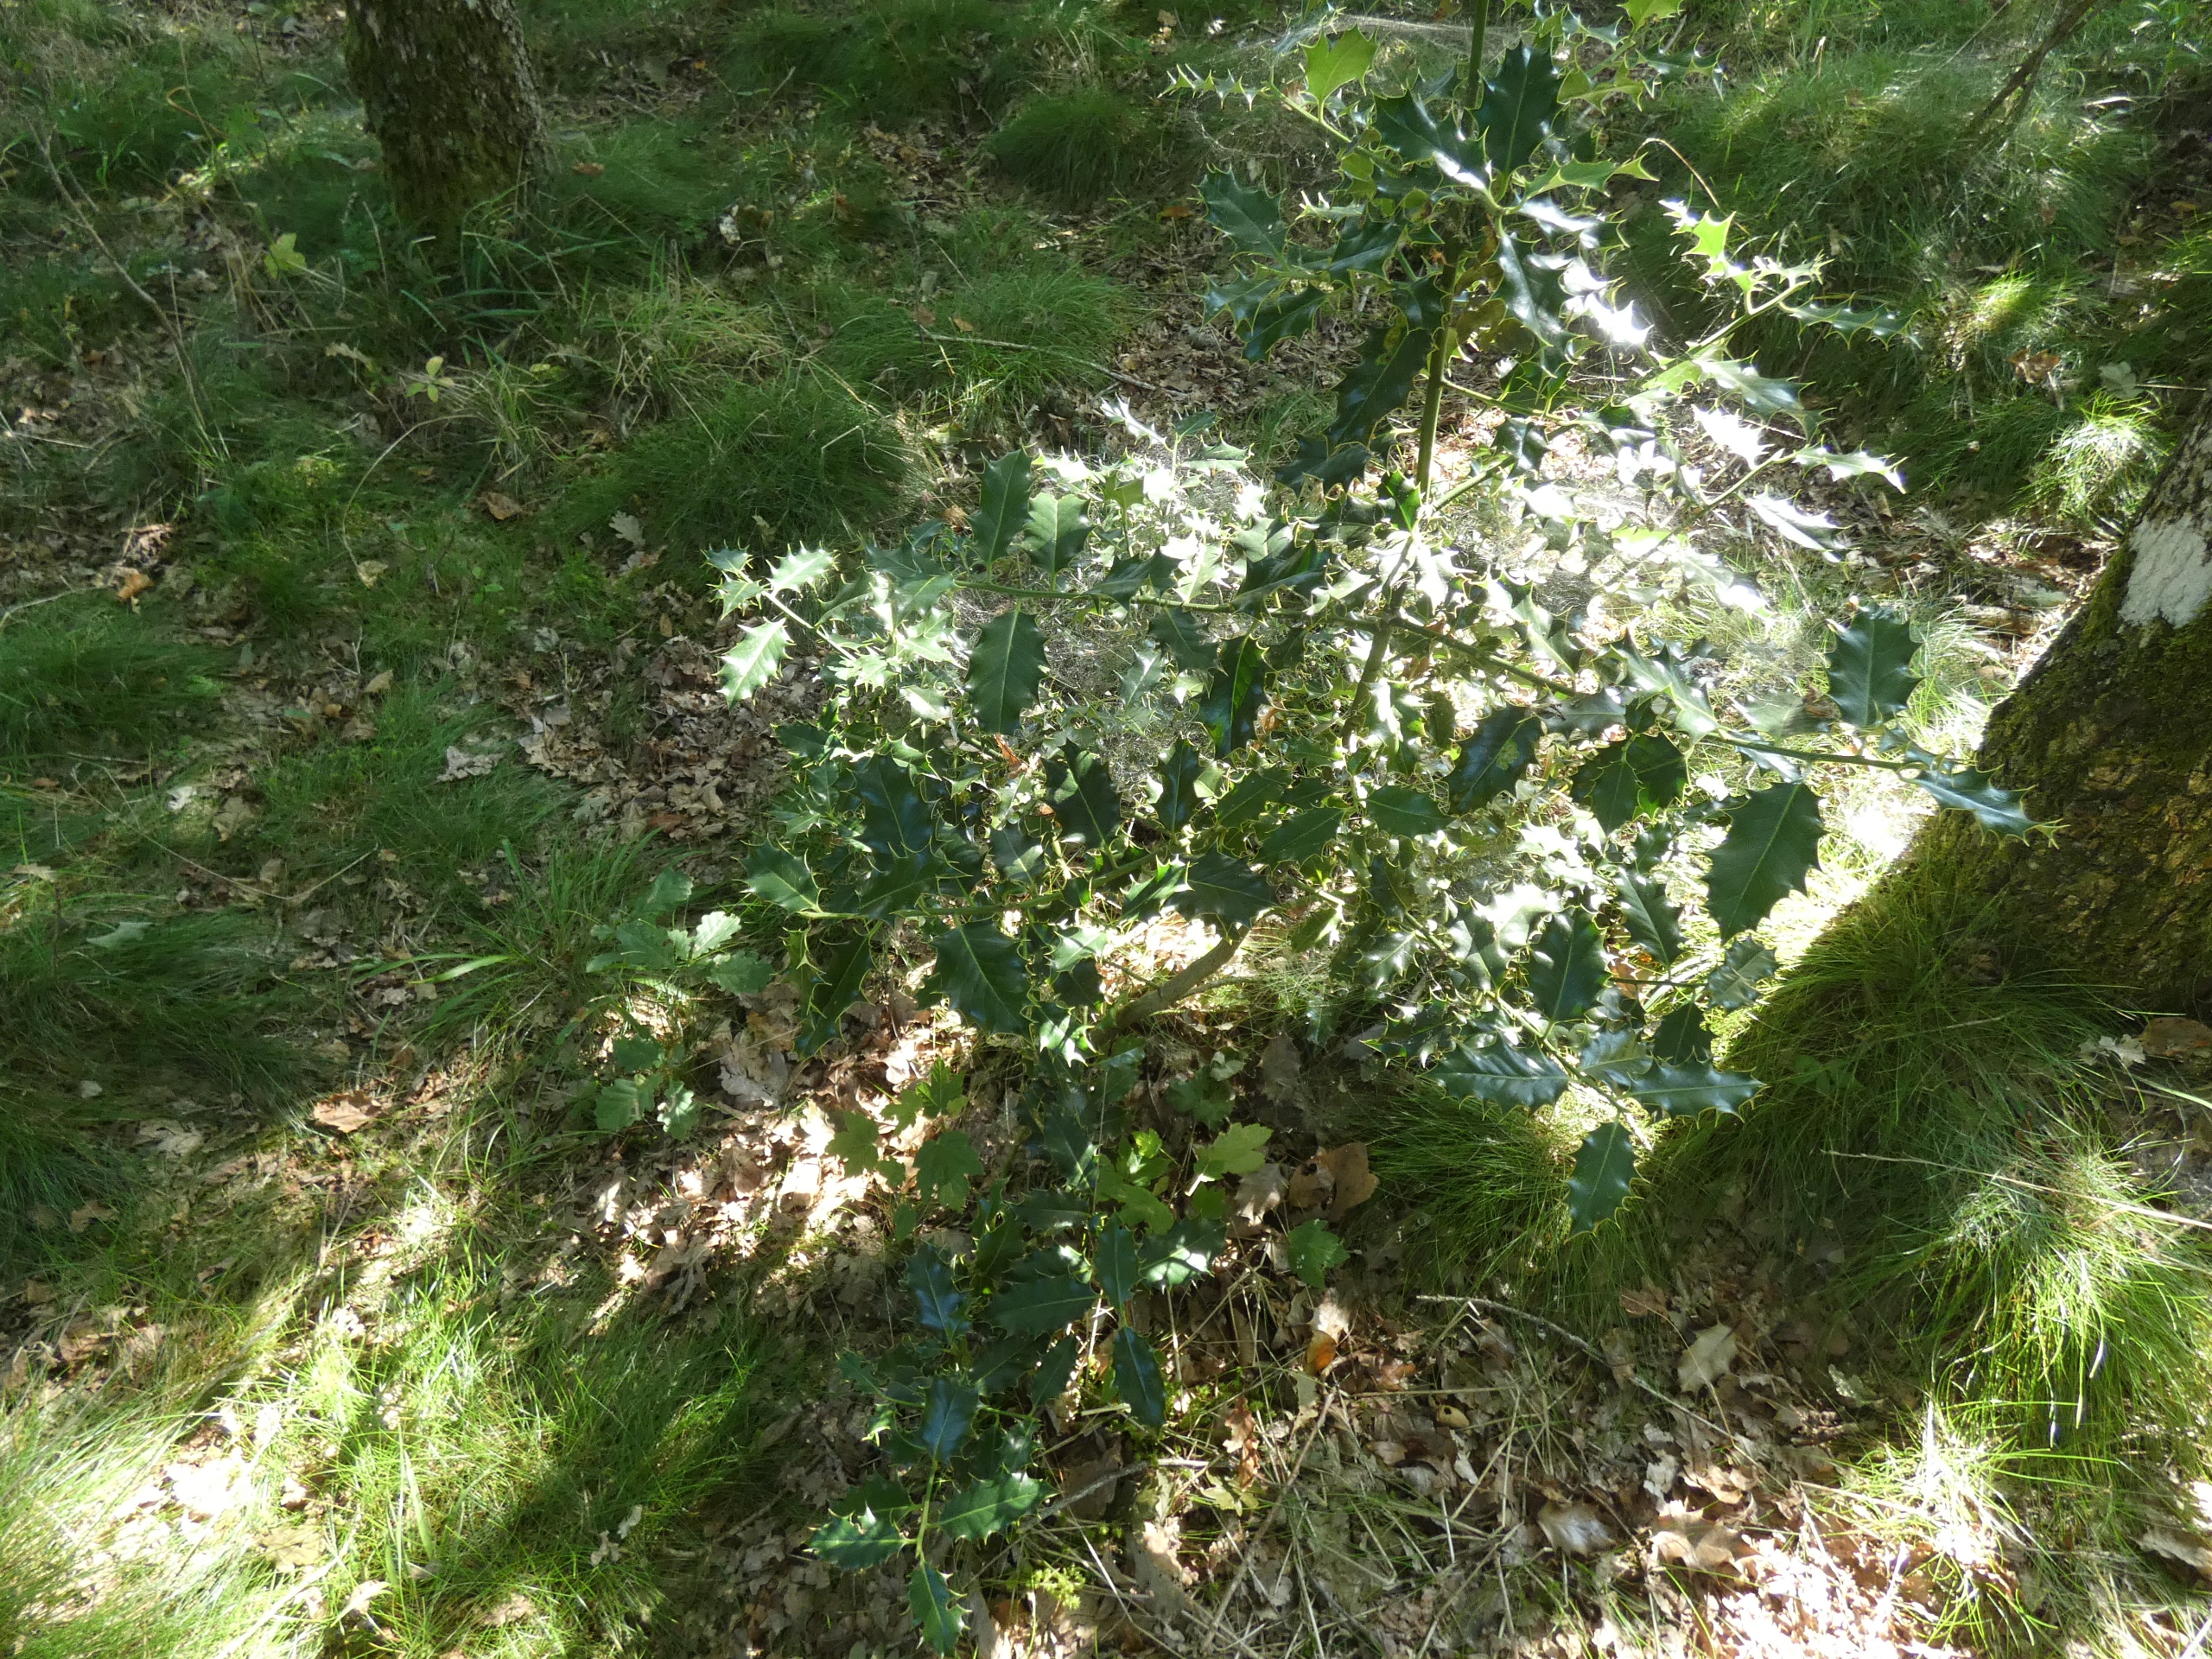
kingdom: Plantae
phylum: Tracheophyta
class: Magnoliopsida
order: Aquifoliales
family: Aquifoliaceae
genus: Ilex
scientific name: Ilex aquifolium
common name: Kristtorn
